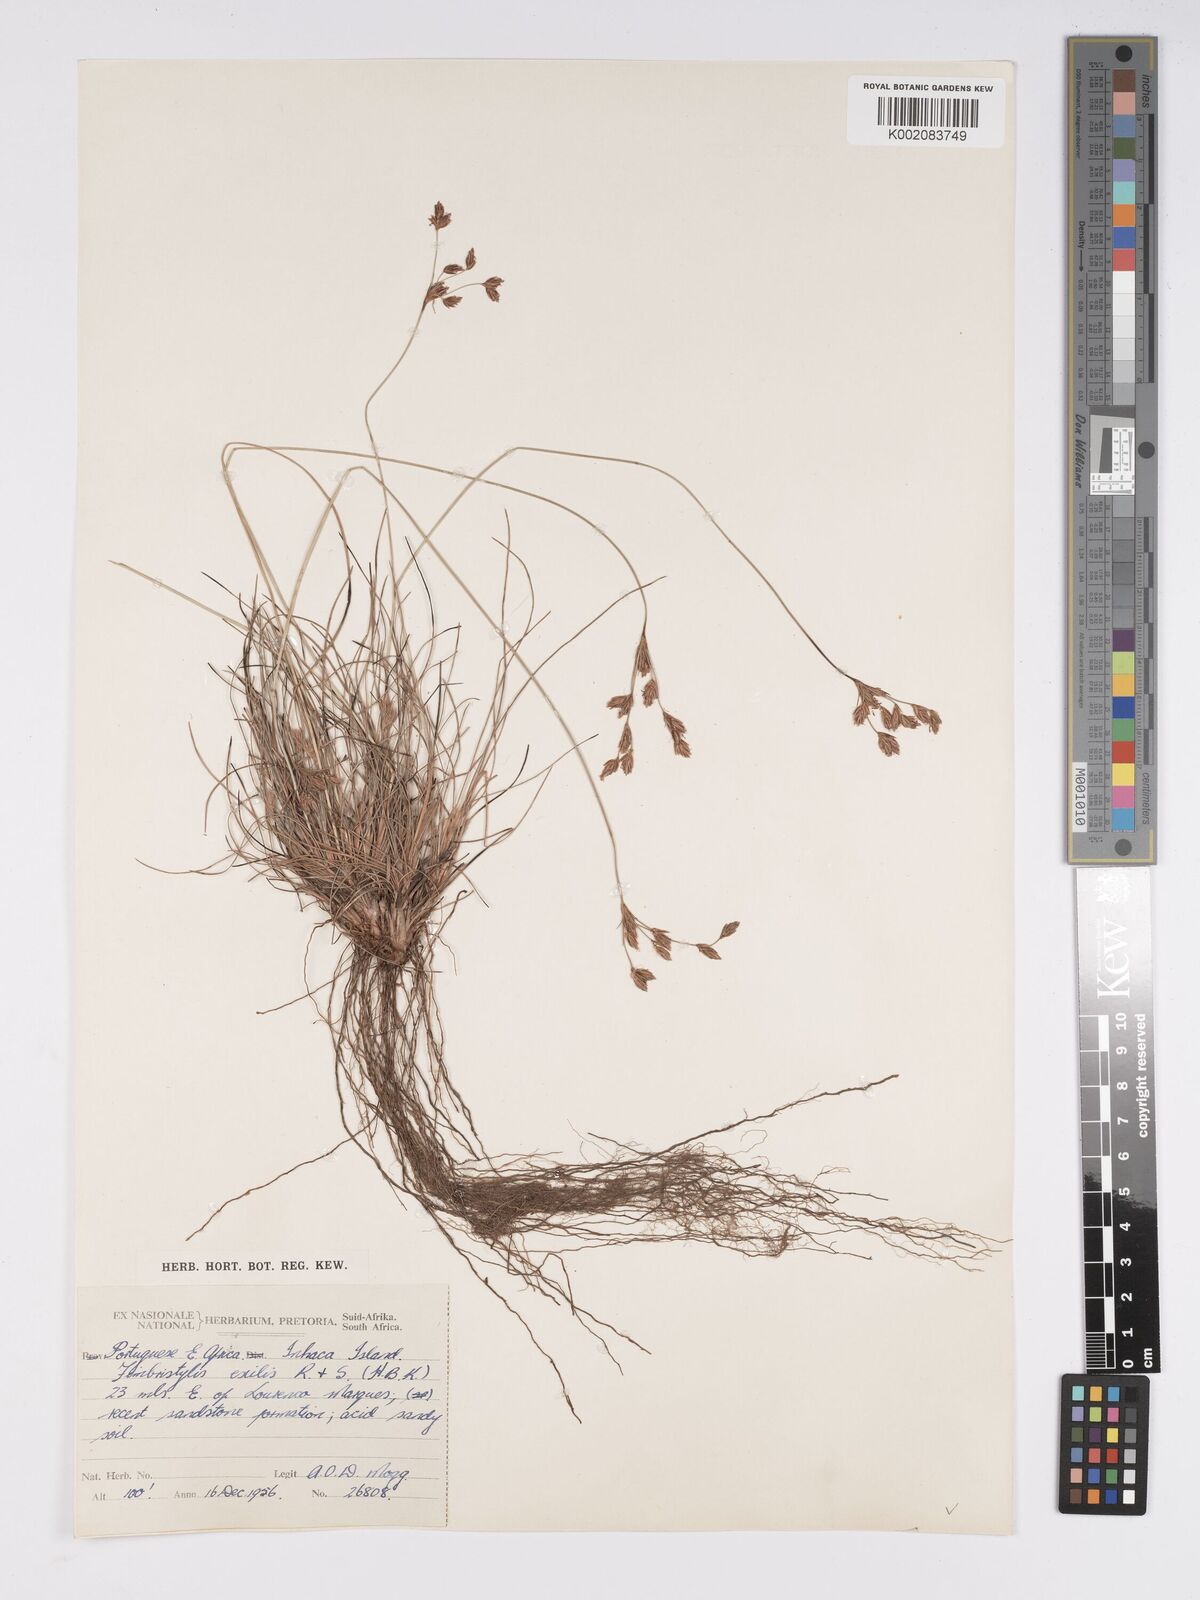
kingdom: Plantae
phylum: Tracheophyta
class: Liliopsida
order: Poales
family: Cyperaceae
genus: Bulbostylis
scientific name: Bulbostylis hispidula
